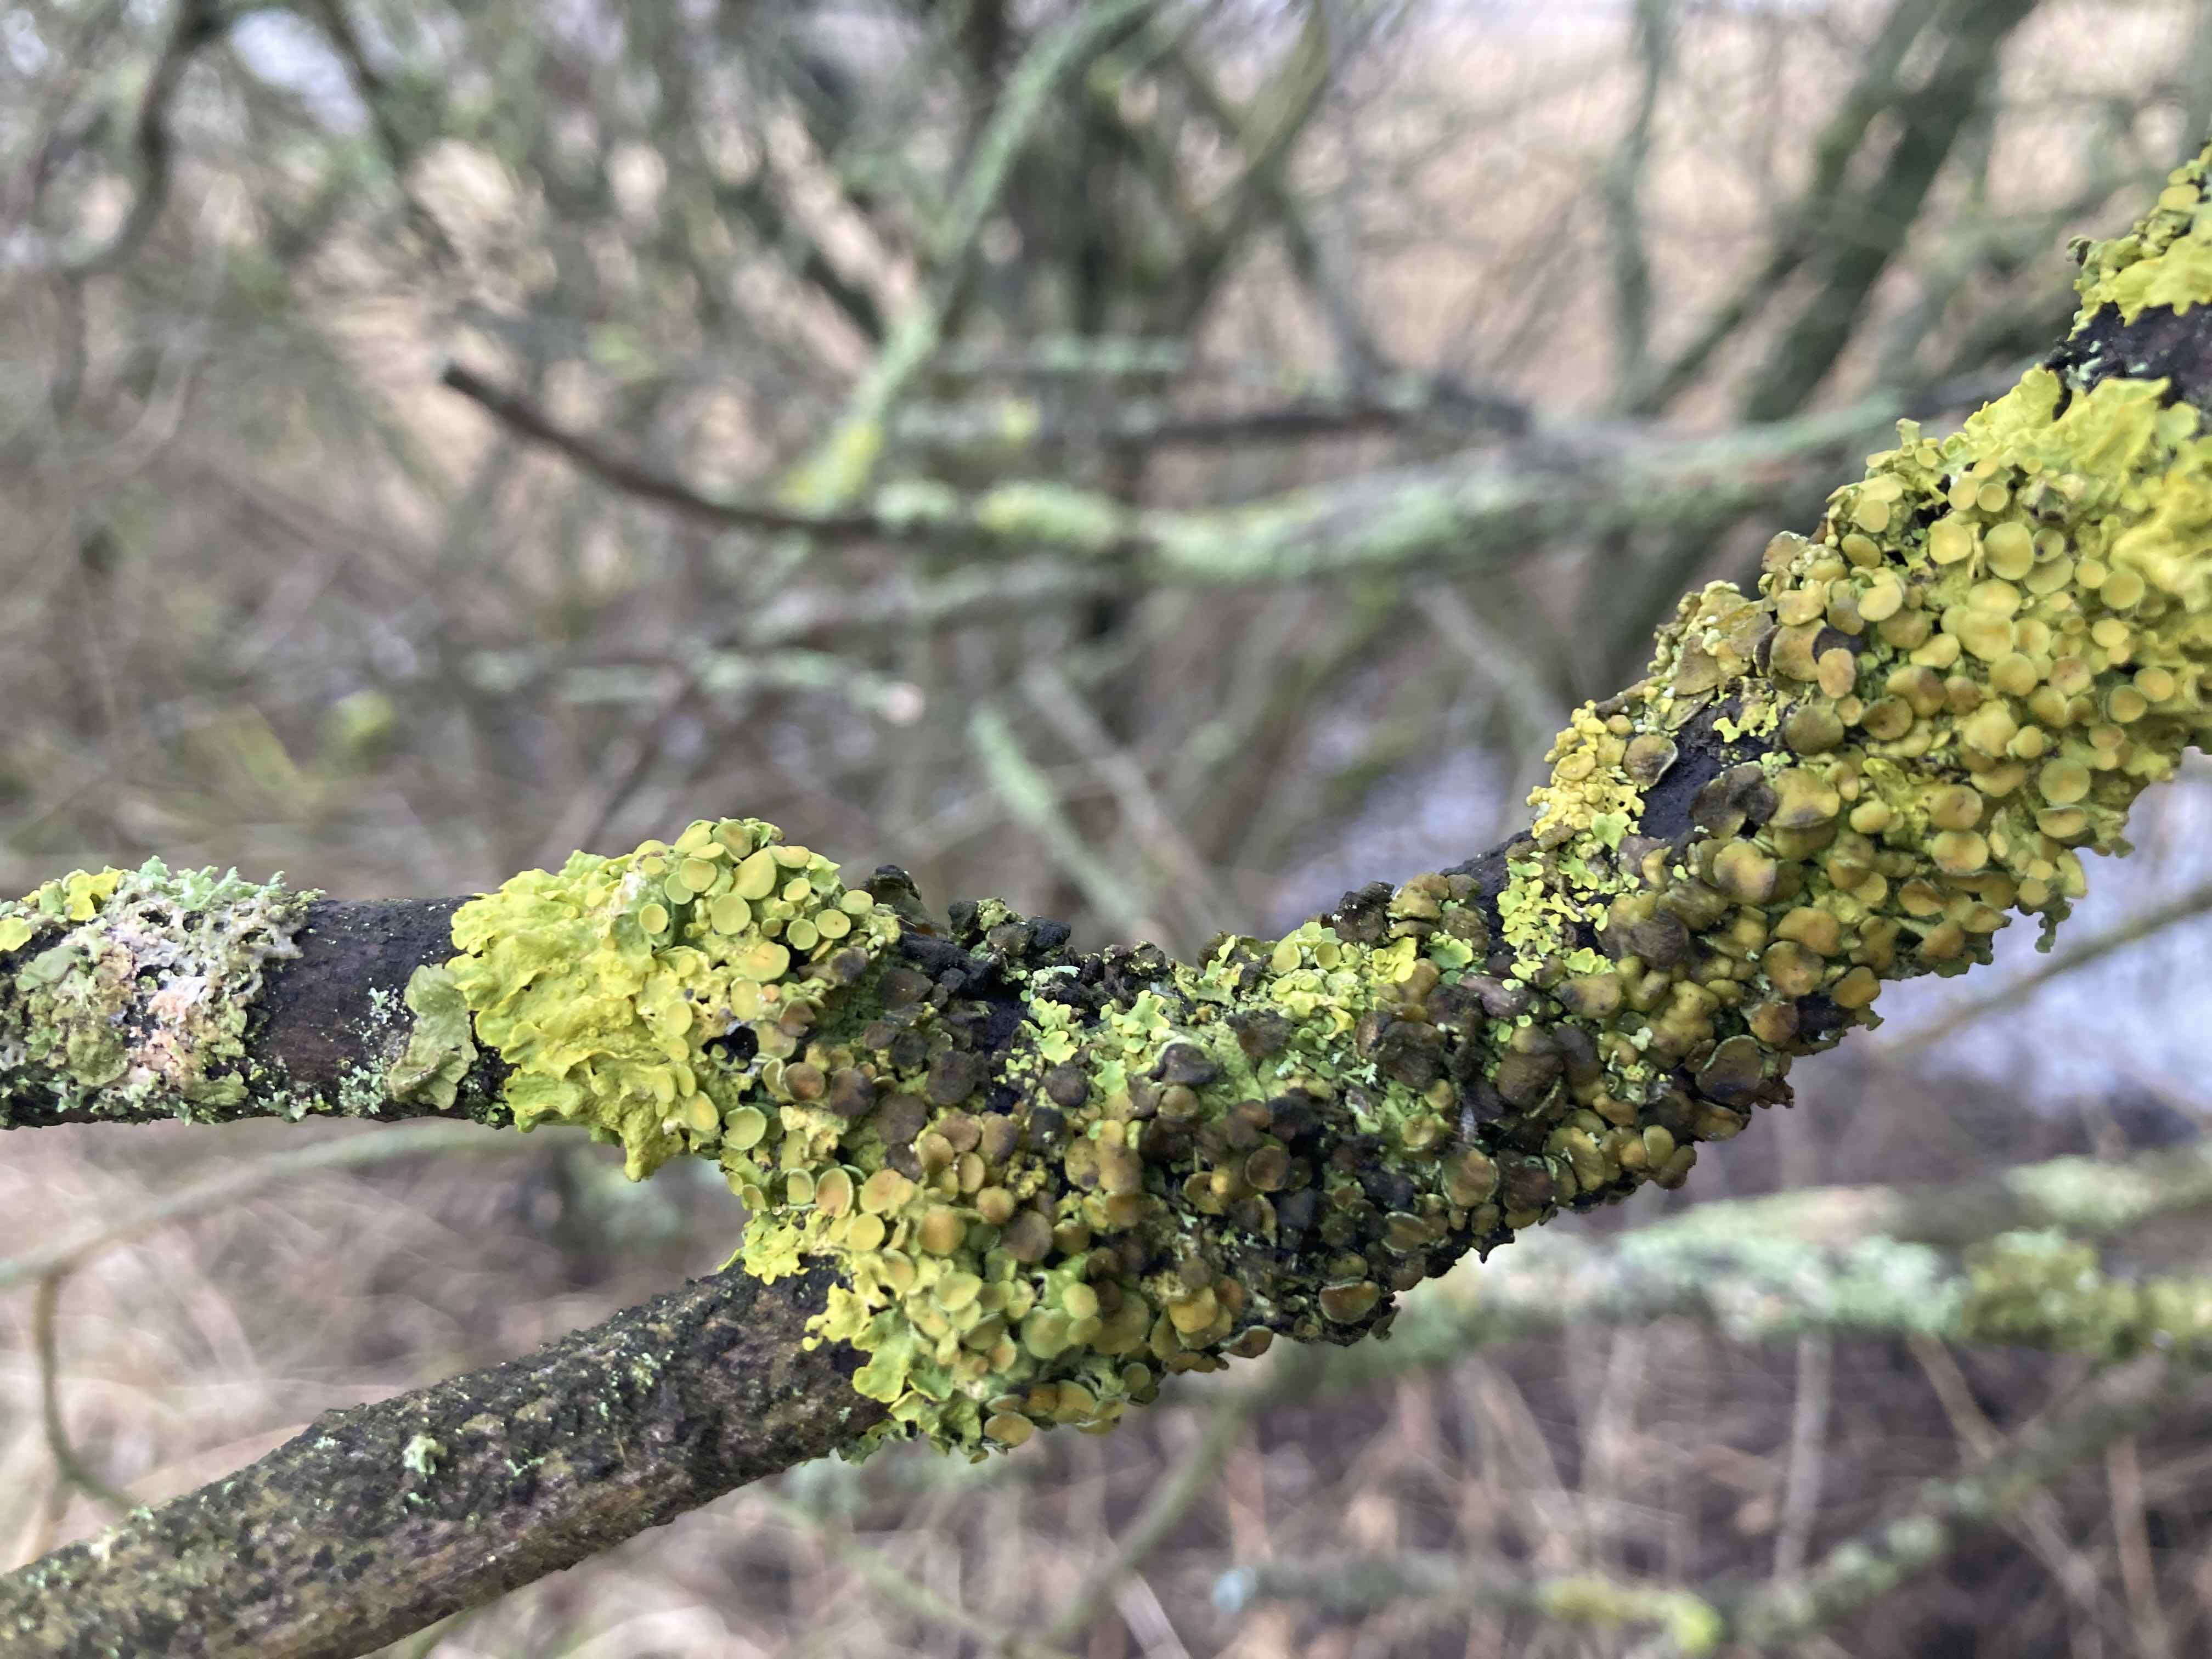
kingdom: Fungi
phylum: Ascomycota
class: Dothideomycetes
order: Mycosphaerellales
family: Teratosphaeriaceae
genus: Xanthoriicola
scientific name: Xanthoriicola physciae
